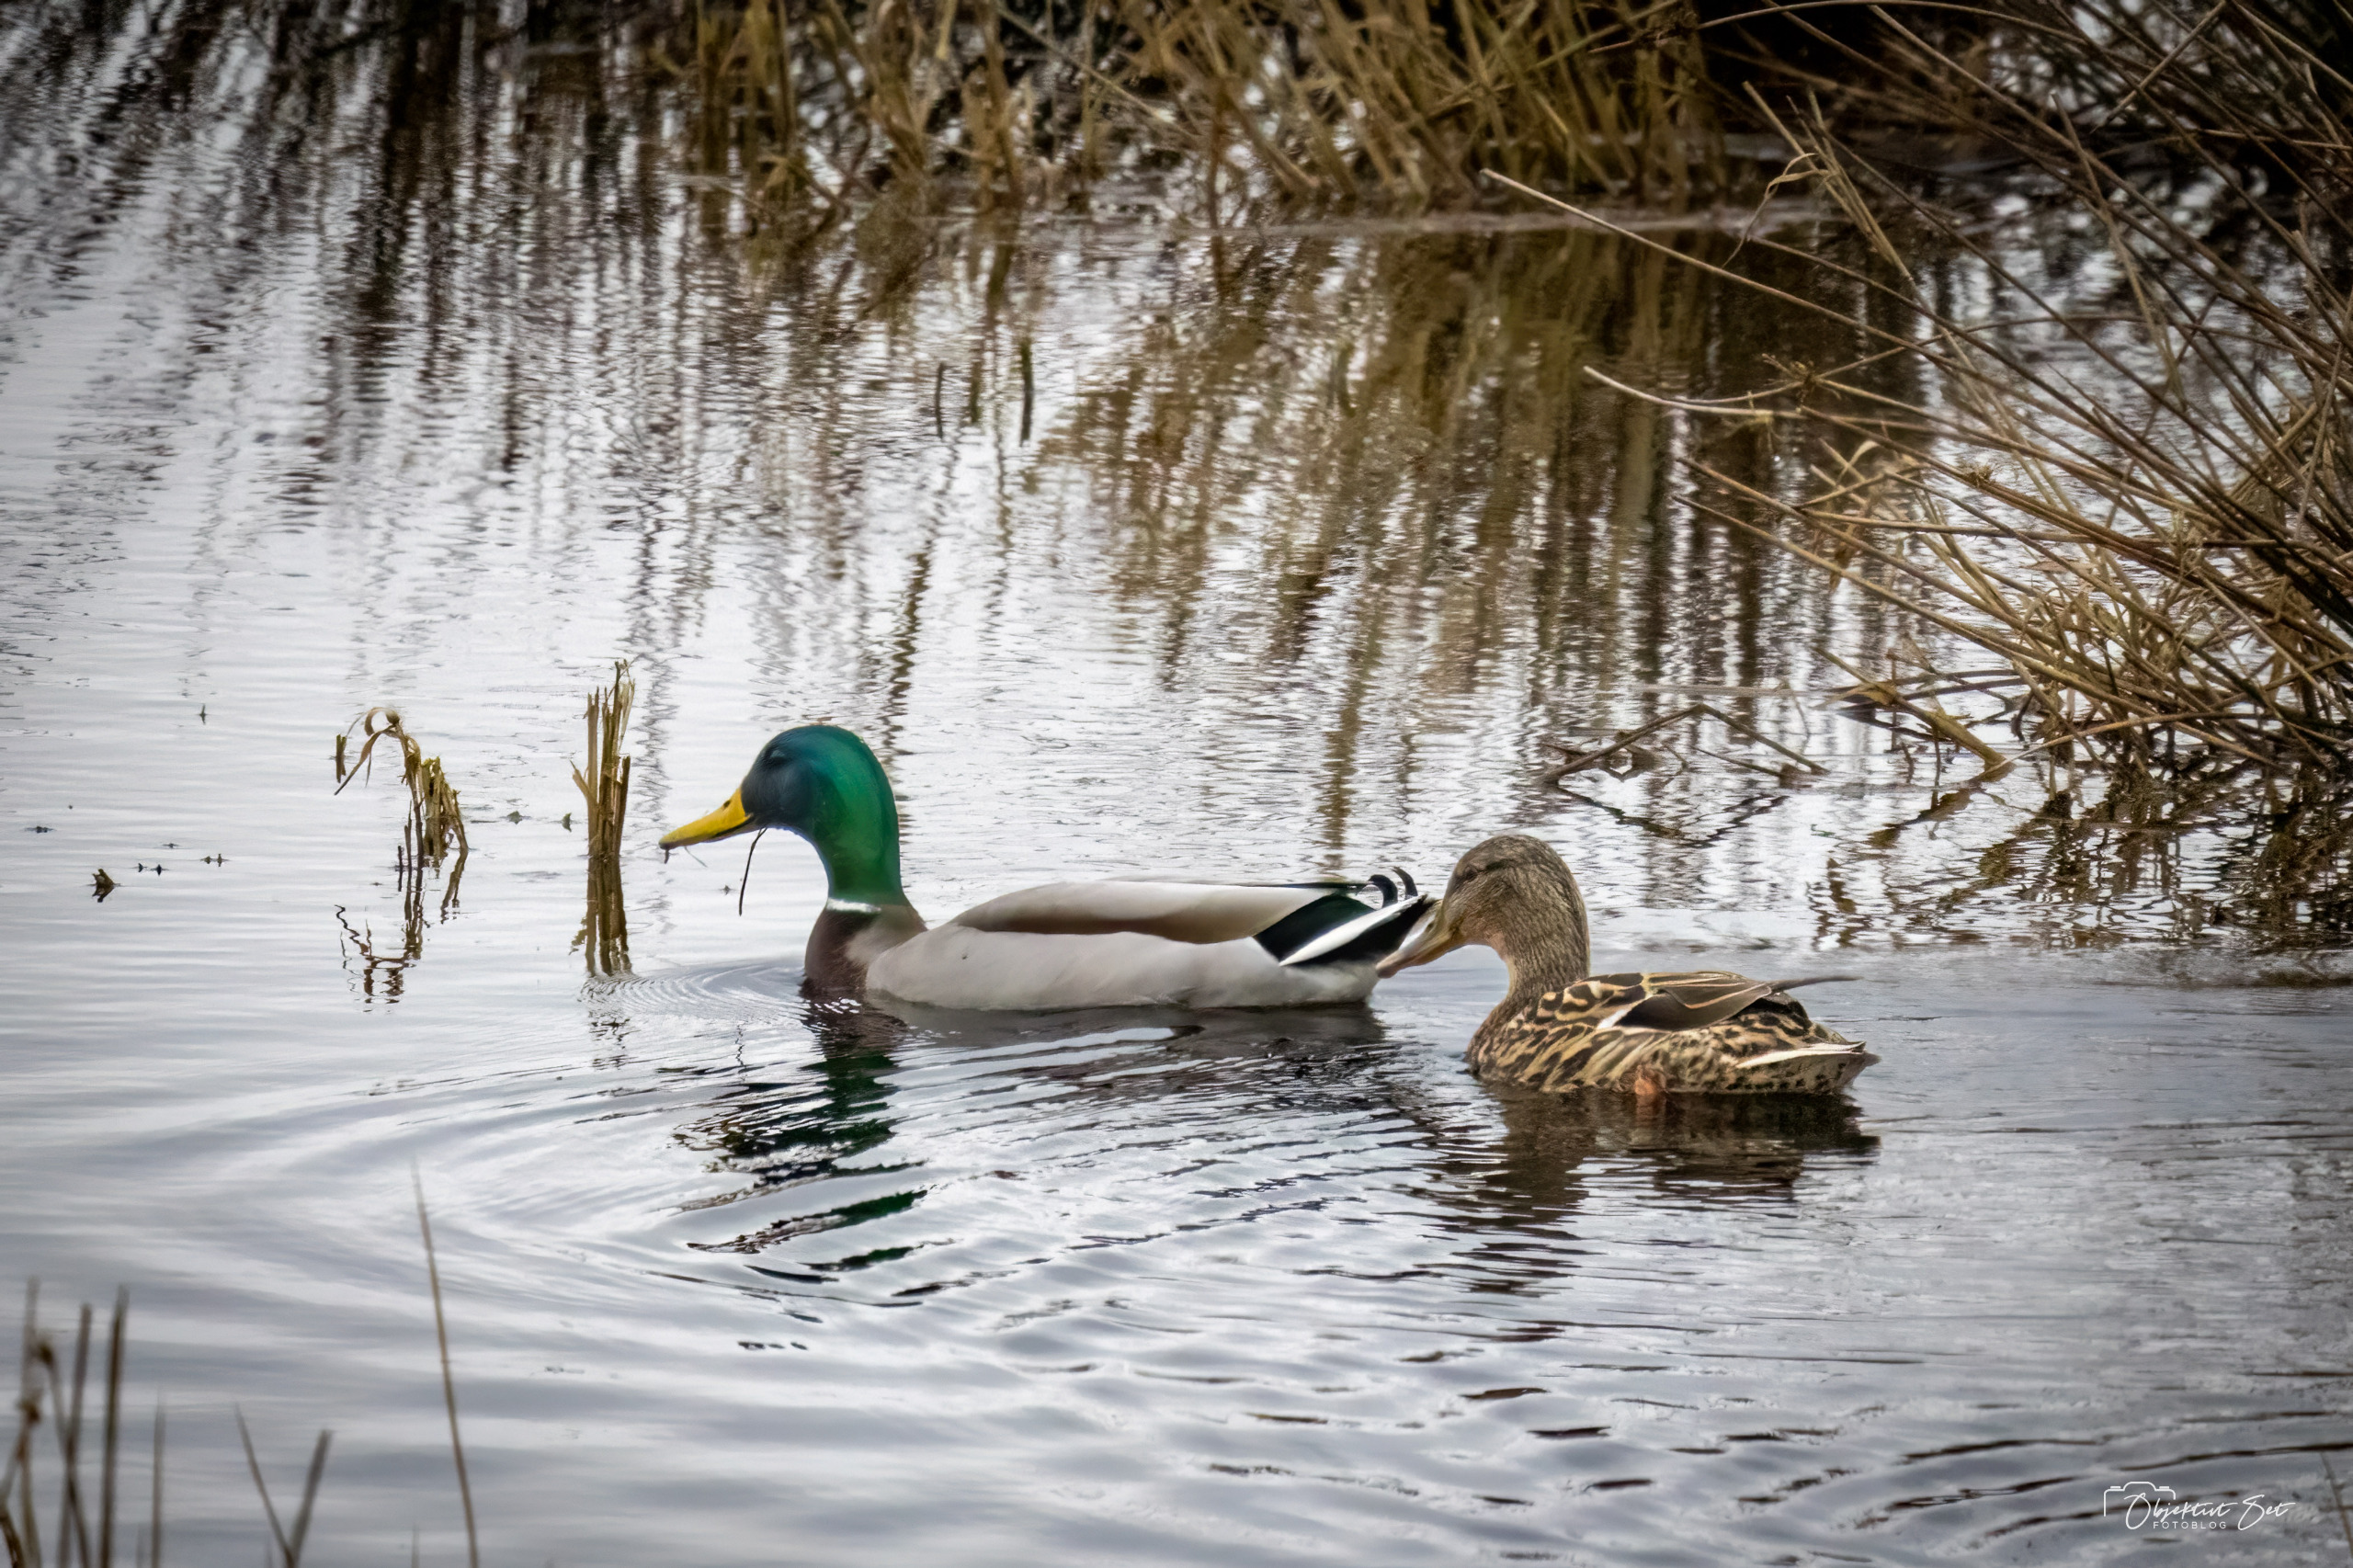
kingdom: Animalia
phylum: Chordata
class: Aves
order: Anseriformes
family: Anatidae
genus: Anas
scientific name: Anas platyrhynchos
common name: Gråand
